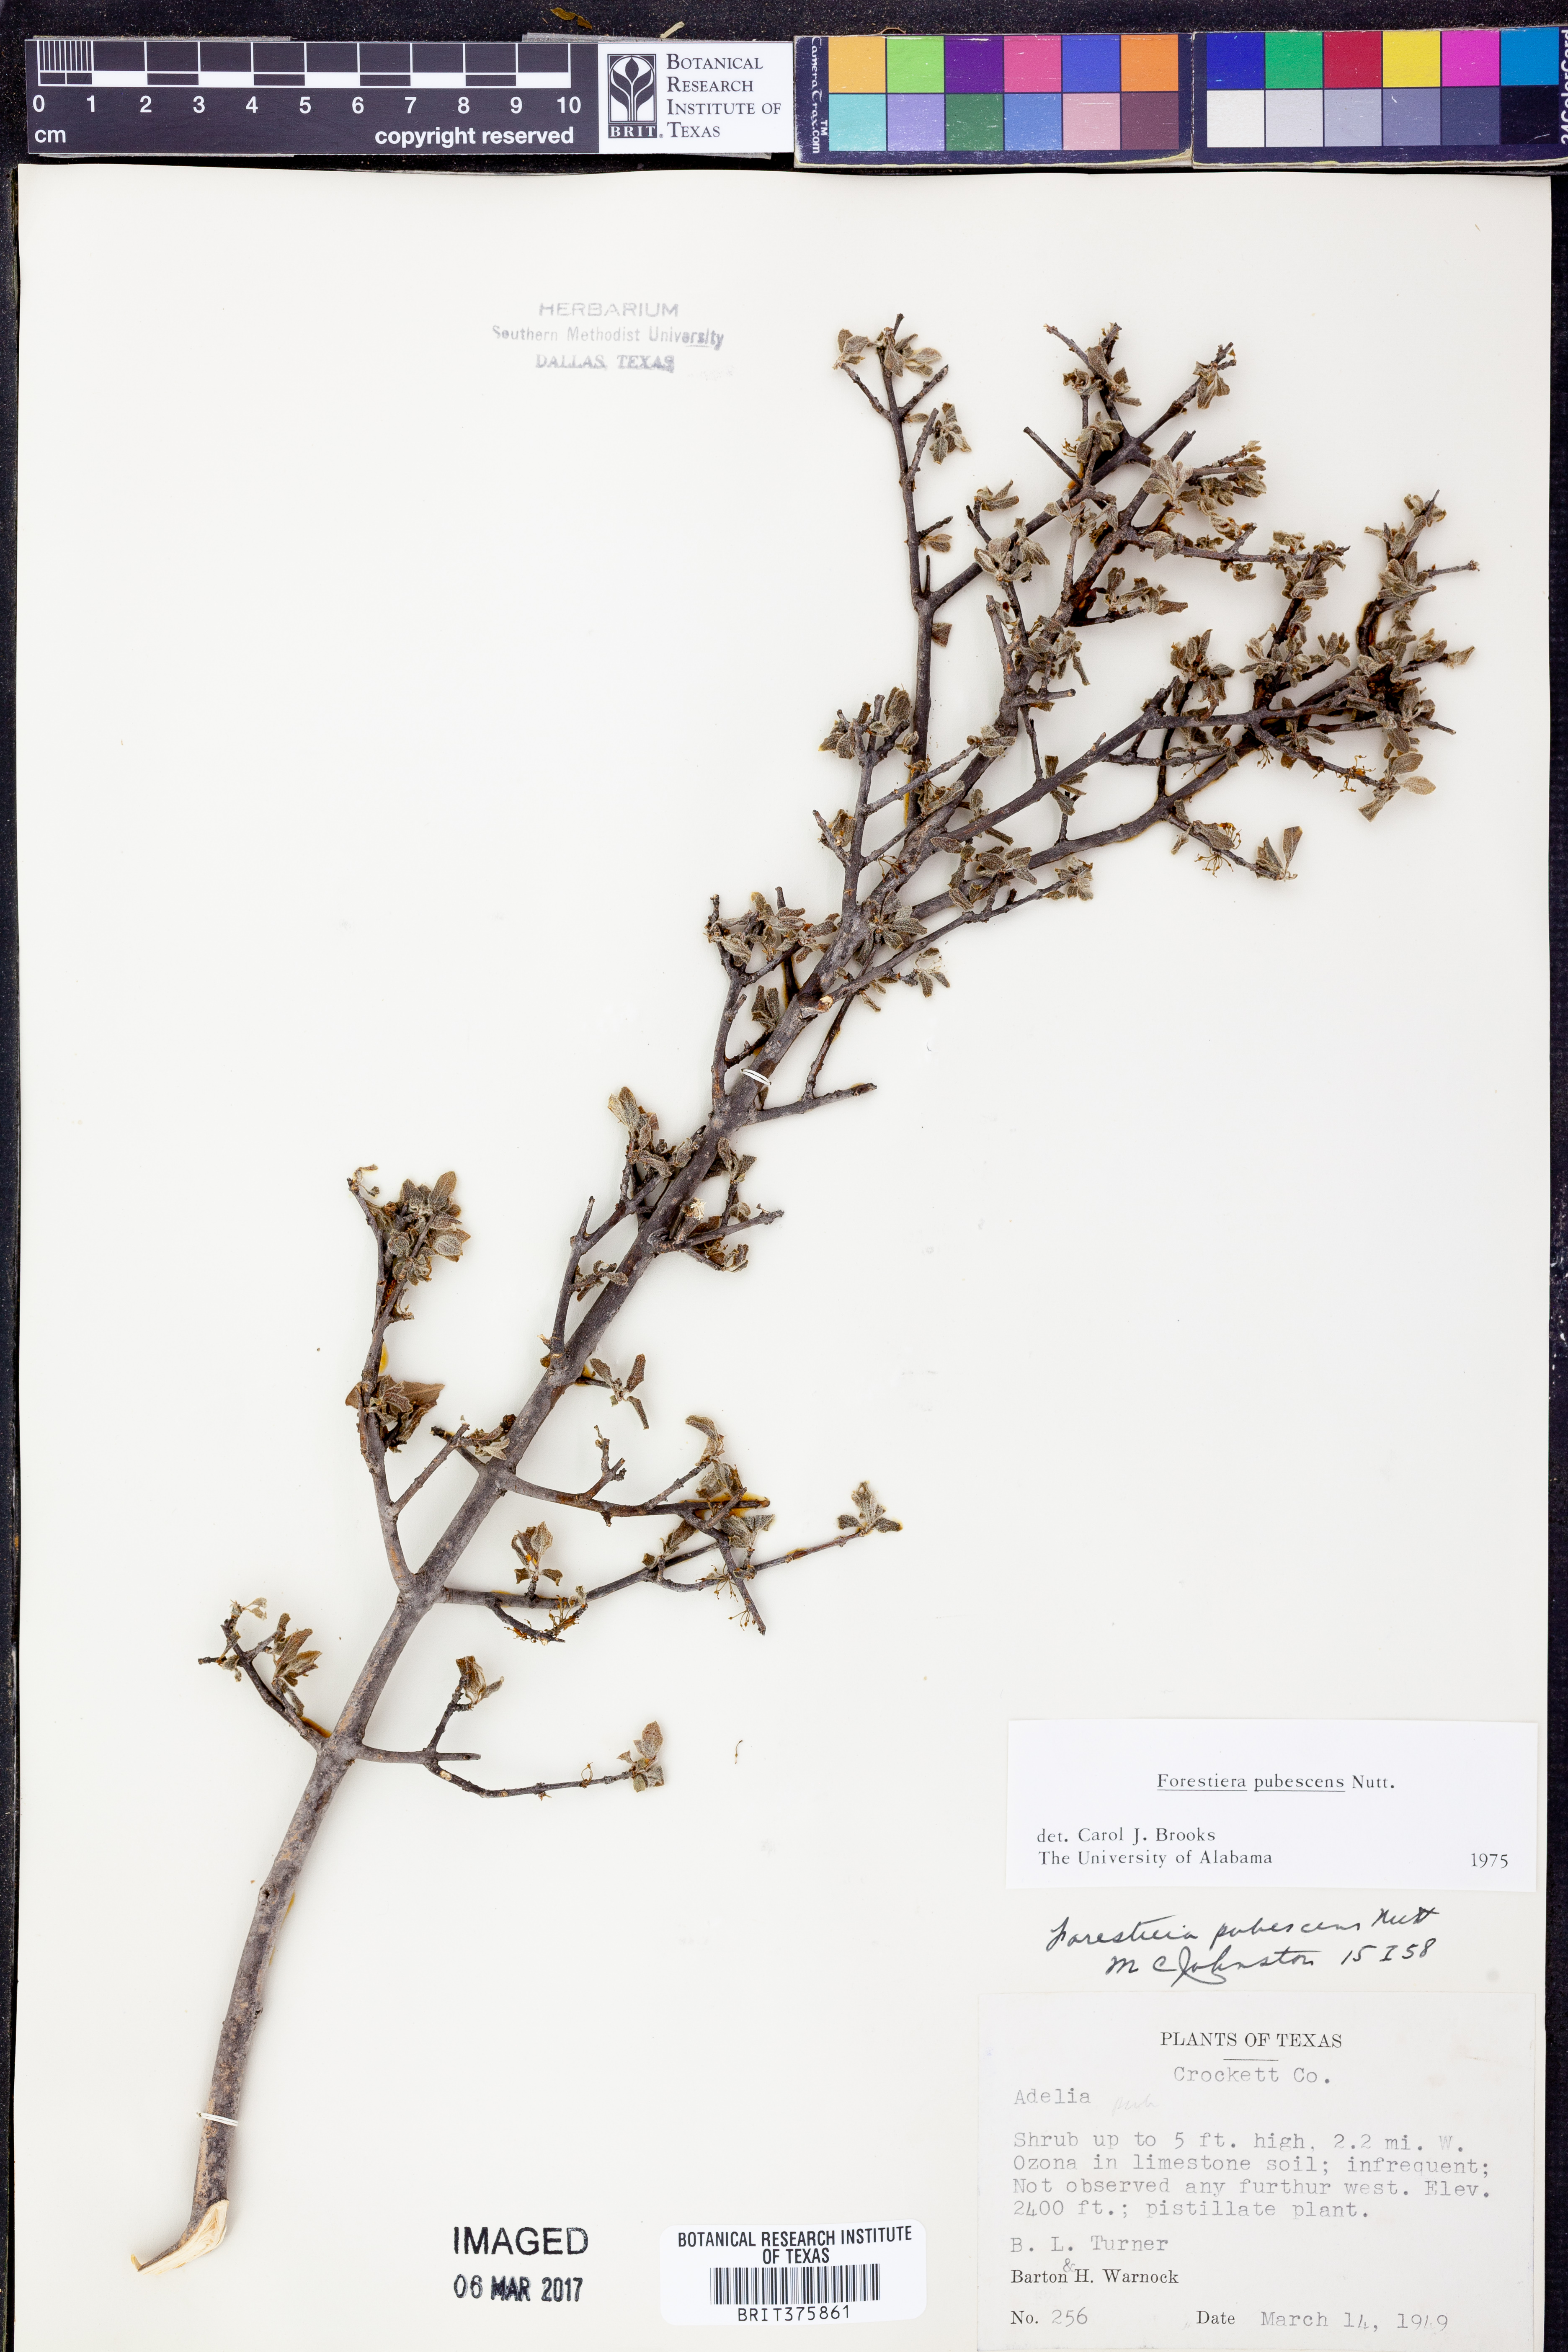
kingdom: Plantae
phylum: Tracheophyta
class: Magnoliopsida
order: Lamiales
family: Oleaceae
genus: Forestiera
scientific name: Forestiera pubescens
